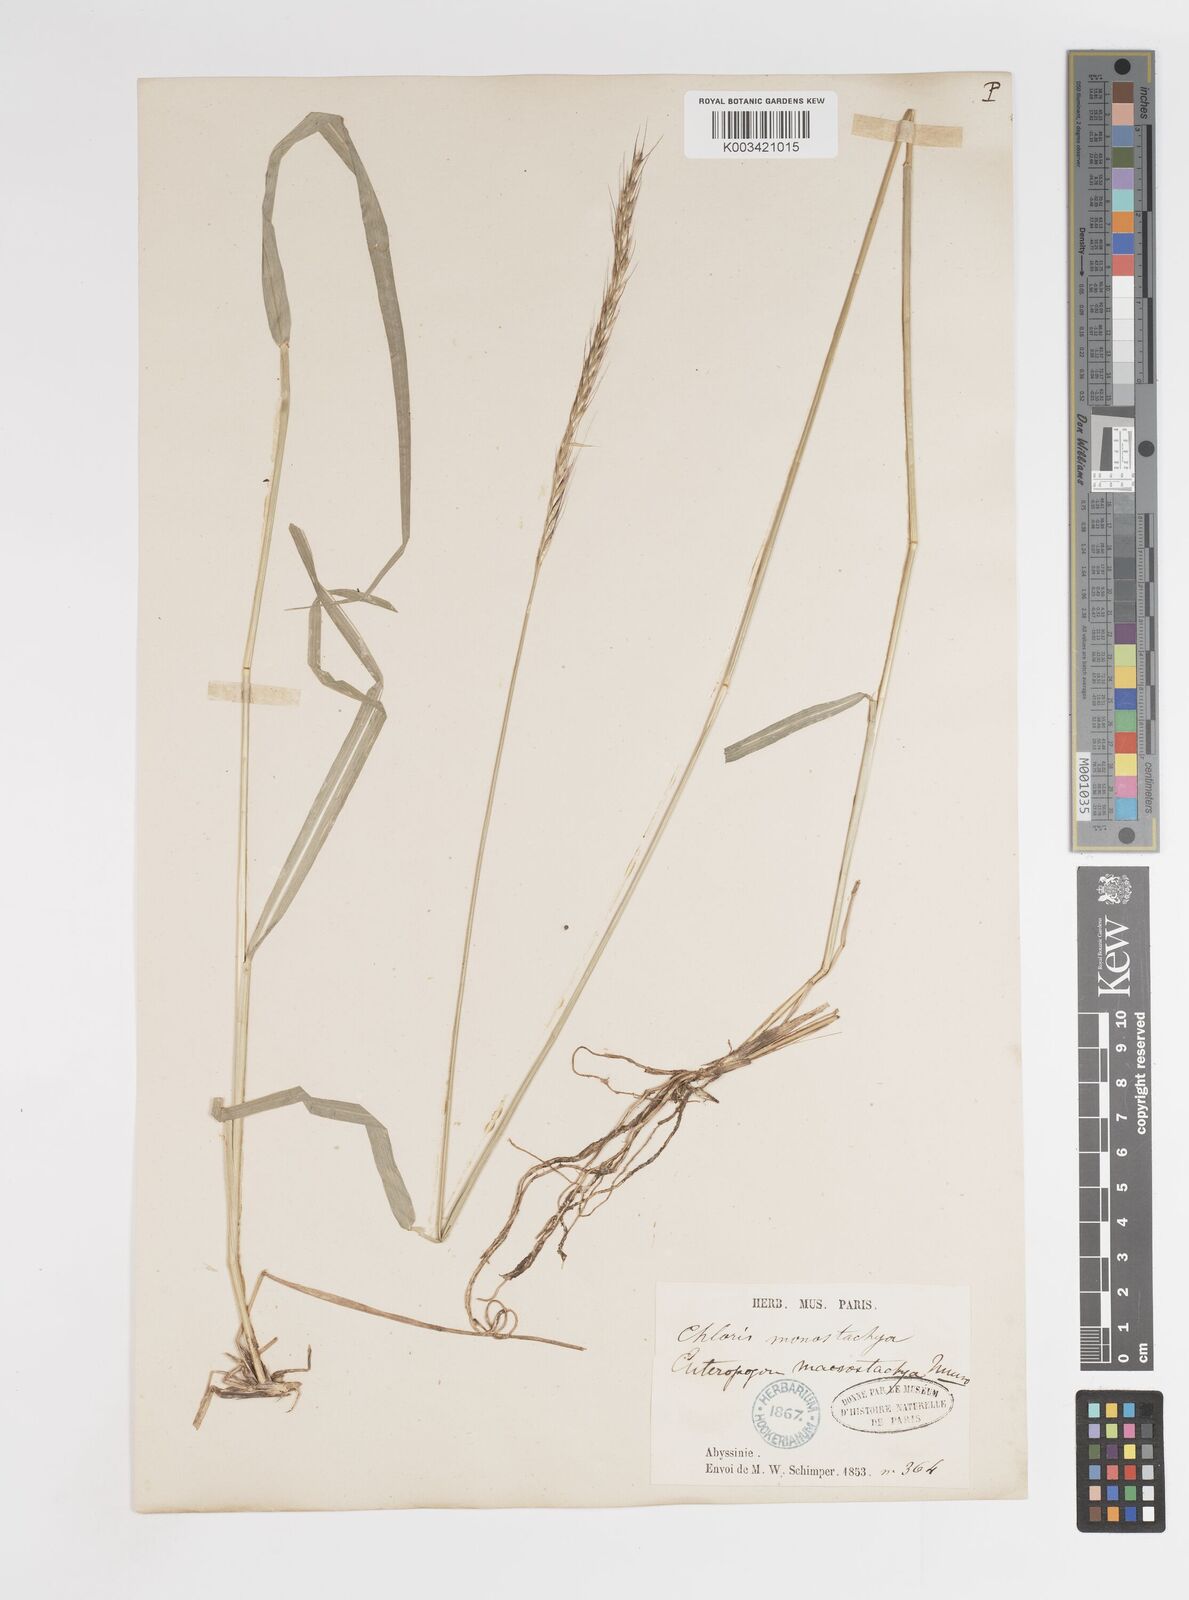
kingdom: Plantae
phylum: Tracheophyta
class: Liliopsida
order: Poales
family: Poaceae
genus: Enteropogon
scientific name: Enteropogon macrostachyus
